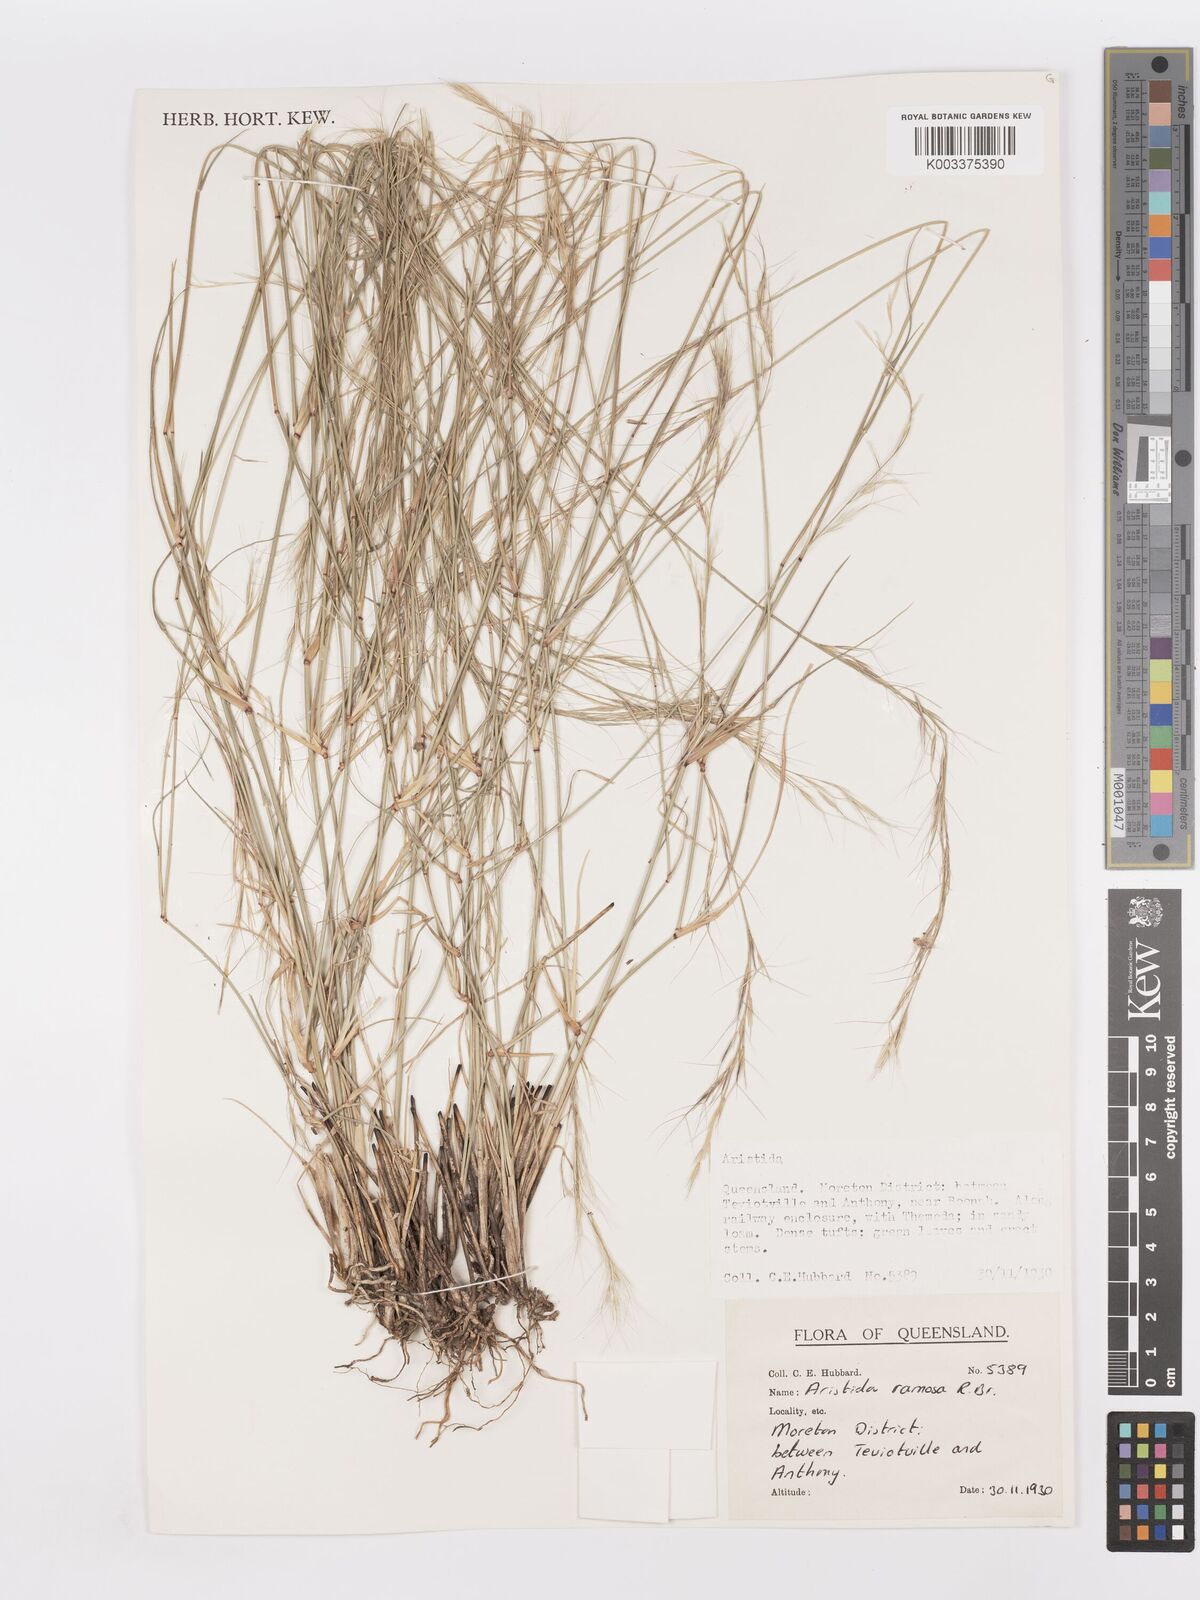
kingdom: Plantae
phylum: Tracheophyta
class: Liliopsida
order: Poales
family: Poaceae
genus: Aristida
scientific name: Aristida ramosa
